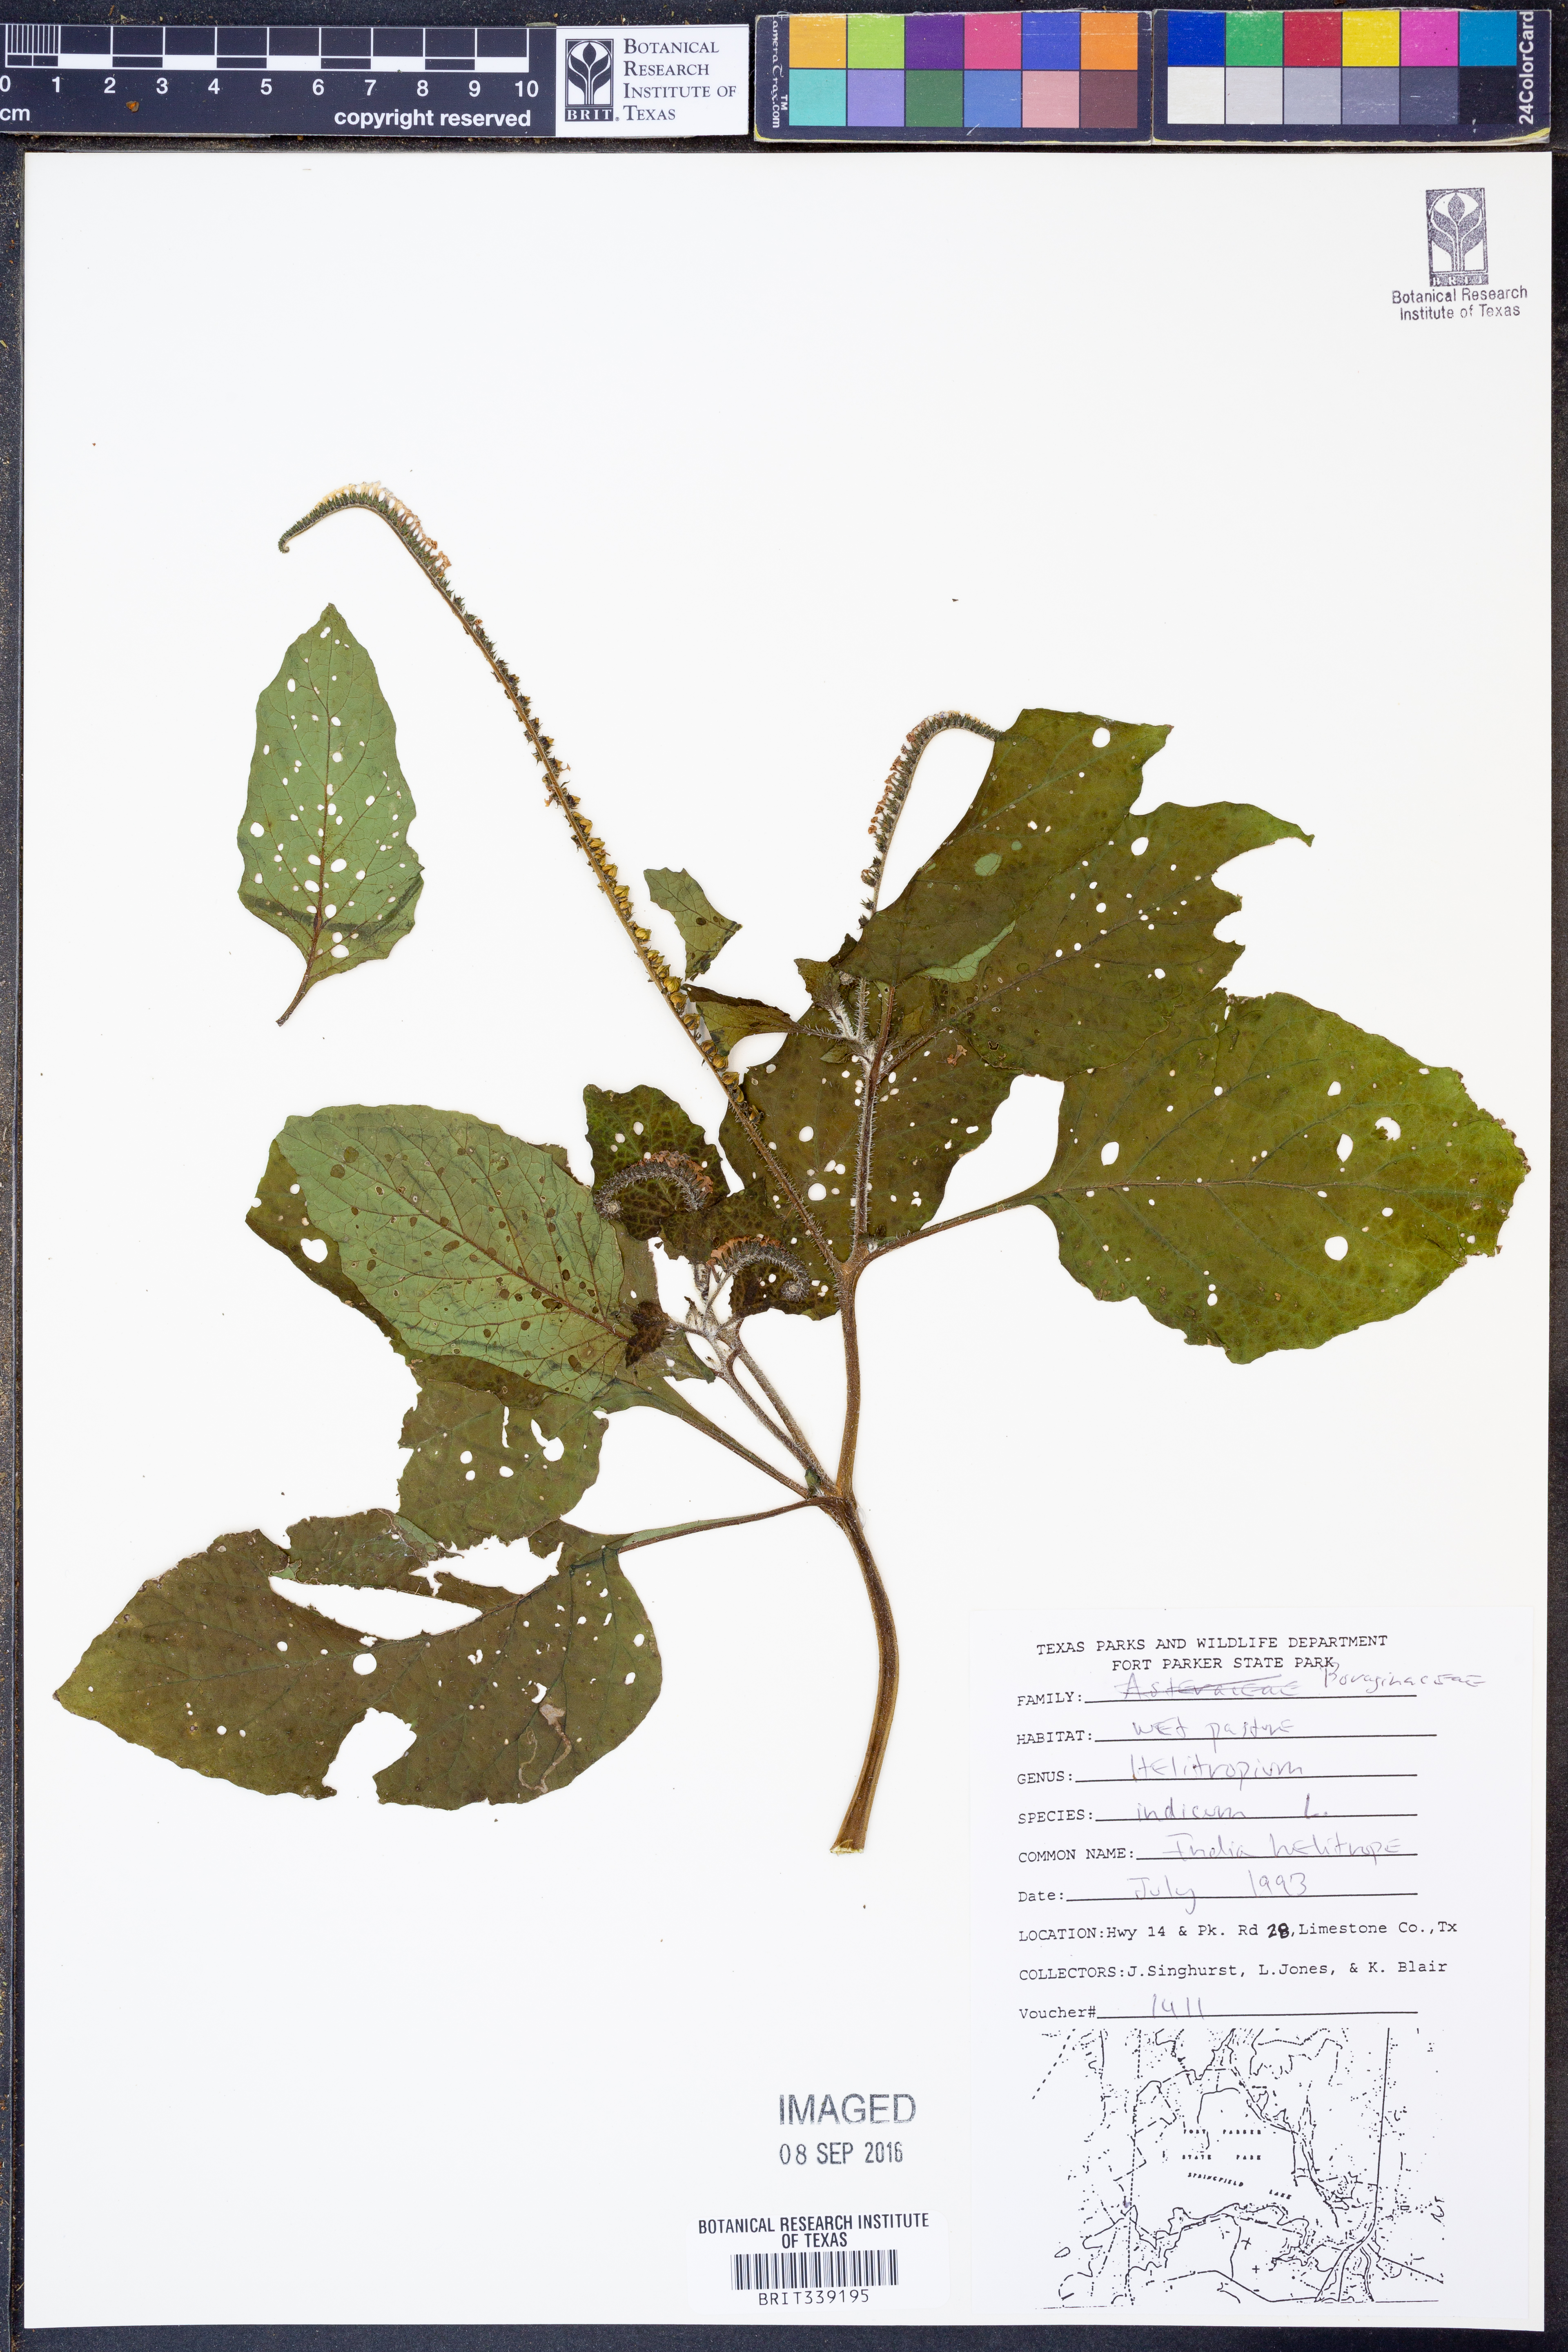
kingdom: Plantae
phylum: Tracheophyta
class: Magnoliopsida
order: Boraginales
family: Heliotropiaceae
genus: Heliotropium
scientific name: Heliotropium indicum
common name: Indian heliotrope
